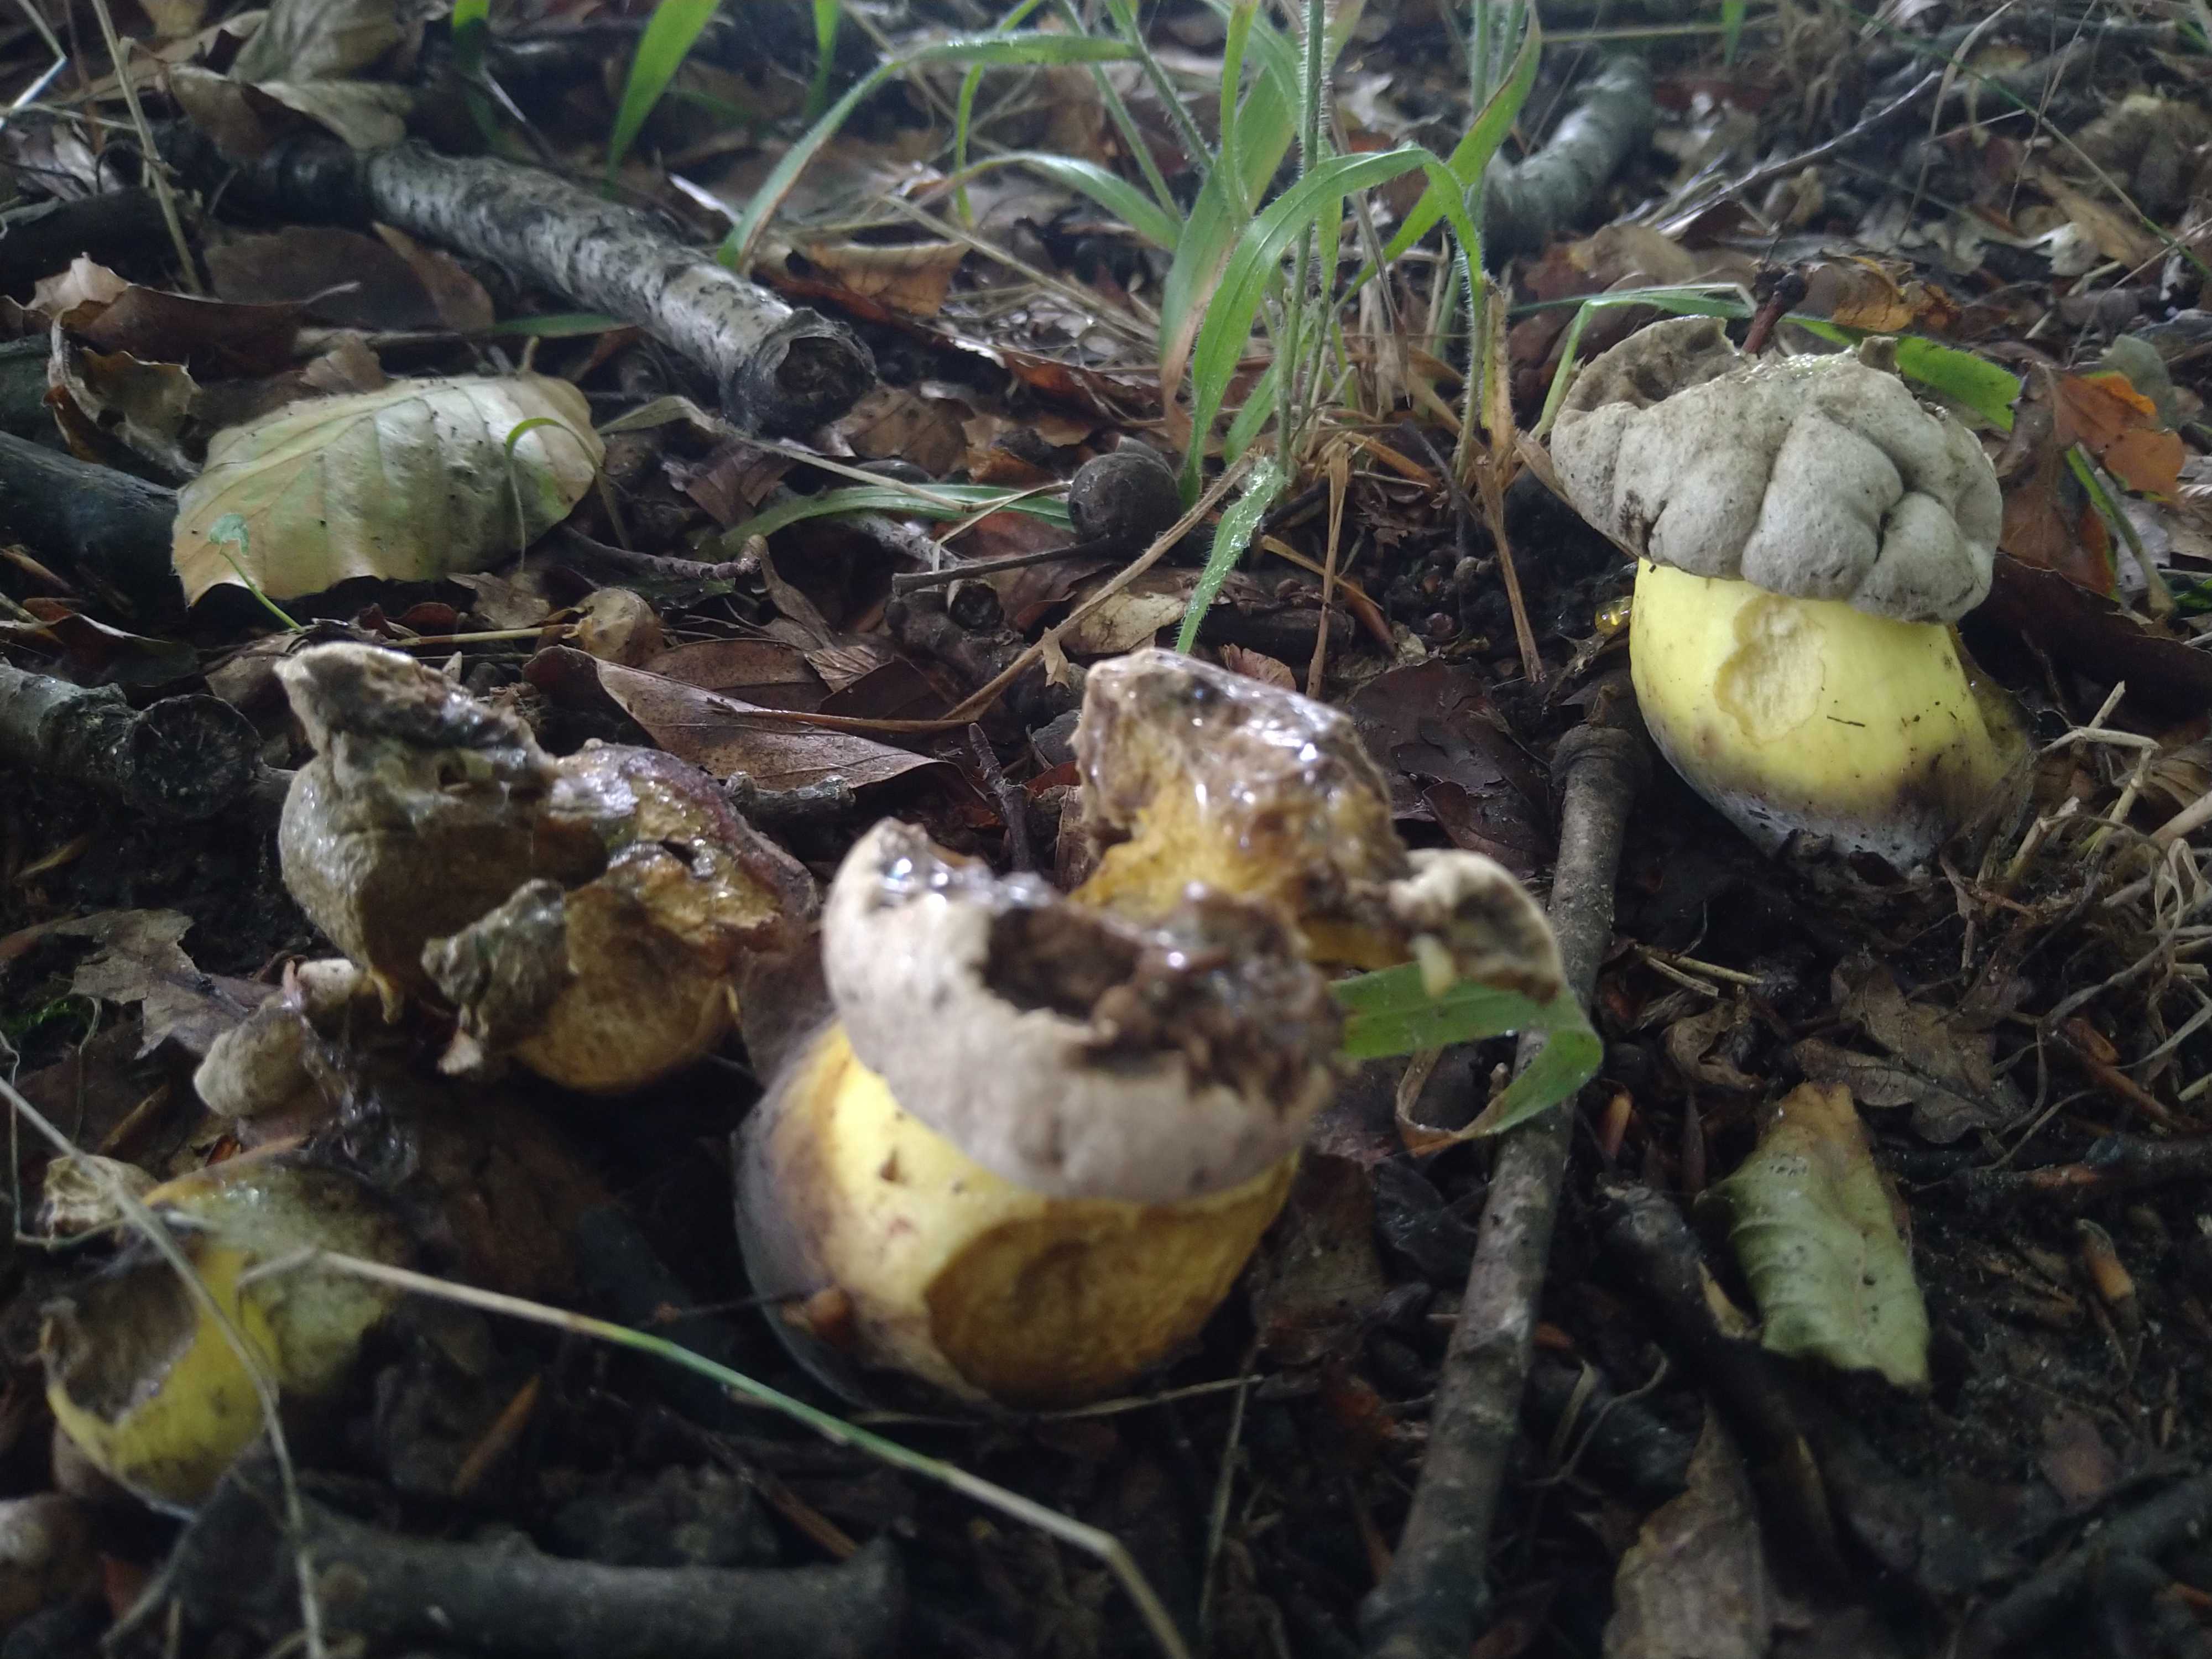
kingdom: Fungi
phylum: Basidiomycota
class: Agaricomycetes
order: Boletales
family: Boletaceae
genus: Caloboletus
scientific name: Caloboletus radicans
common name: rod-rørhat
